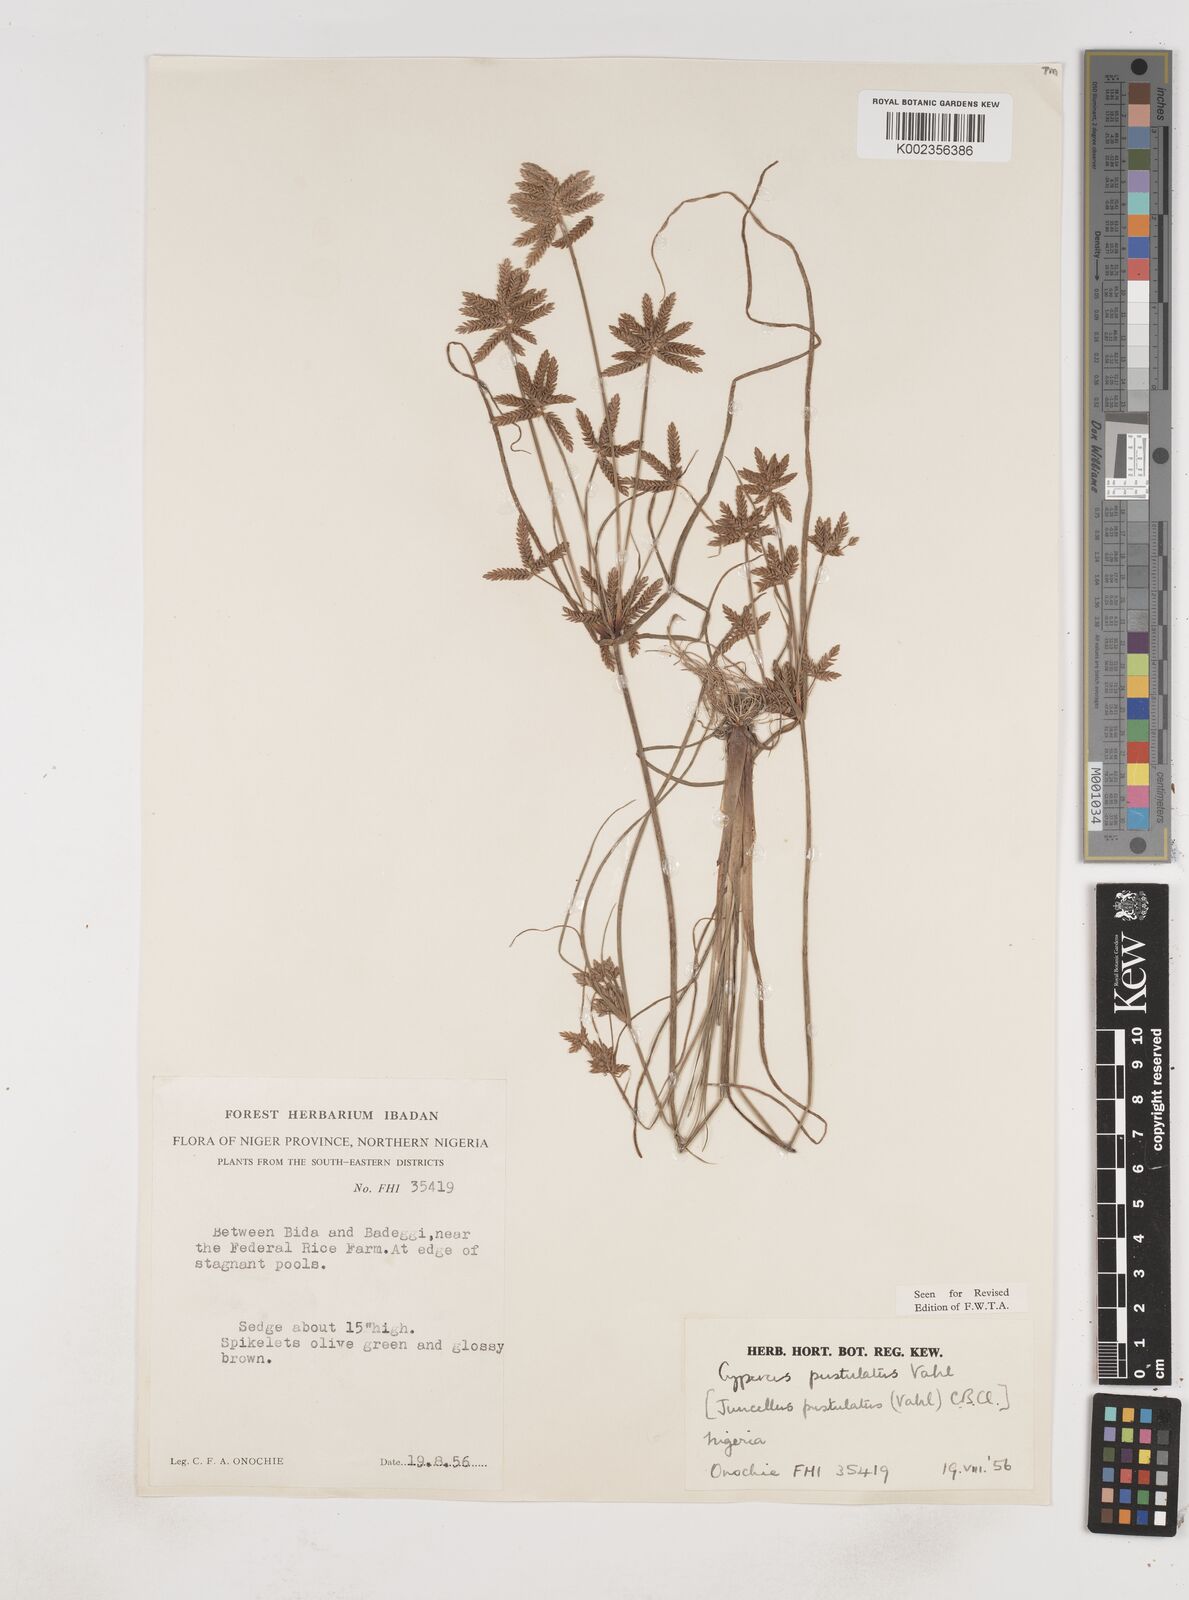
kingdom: Plantae
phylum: Tracheophyta
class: Liliopsida
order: Poales
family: Cyperaceae
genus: Cyperus
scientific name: Cyperus pustulatus
